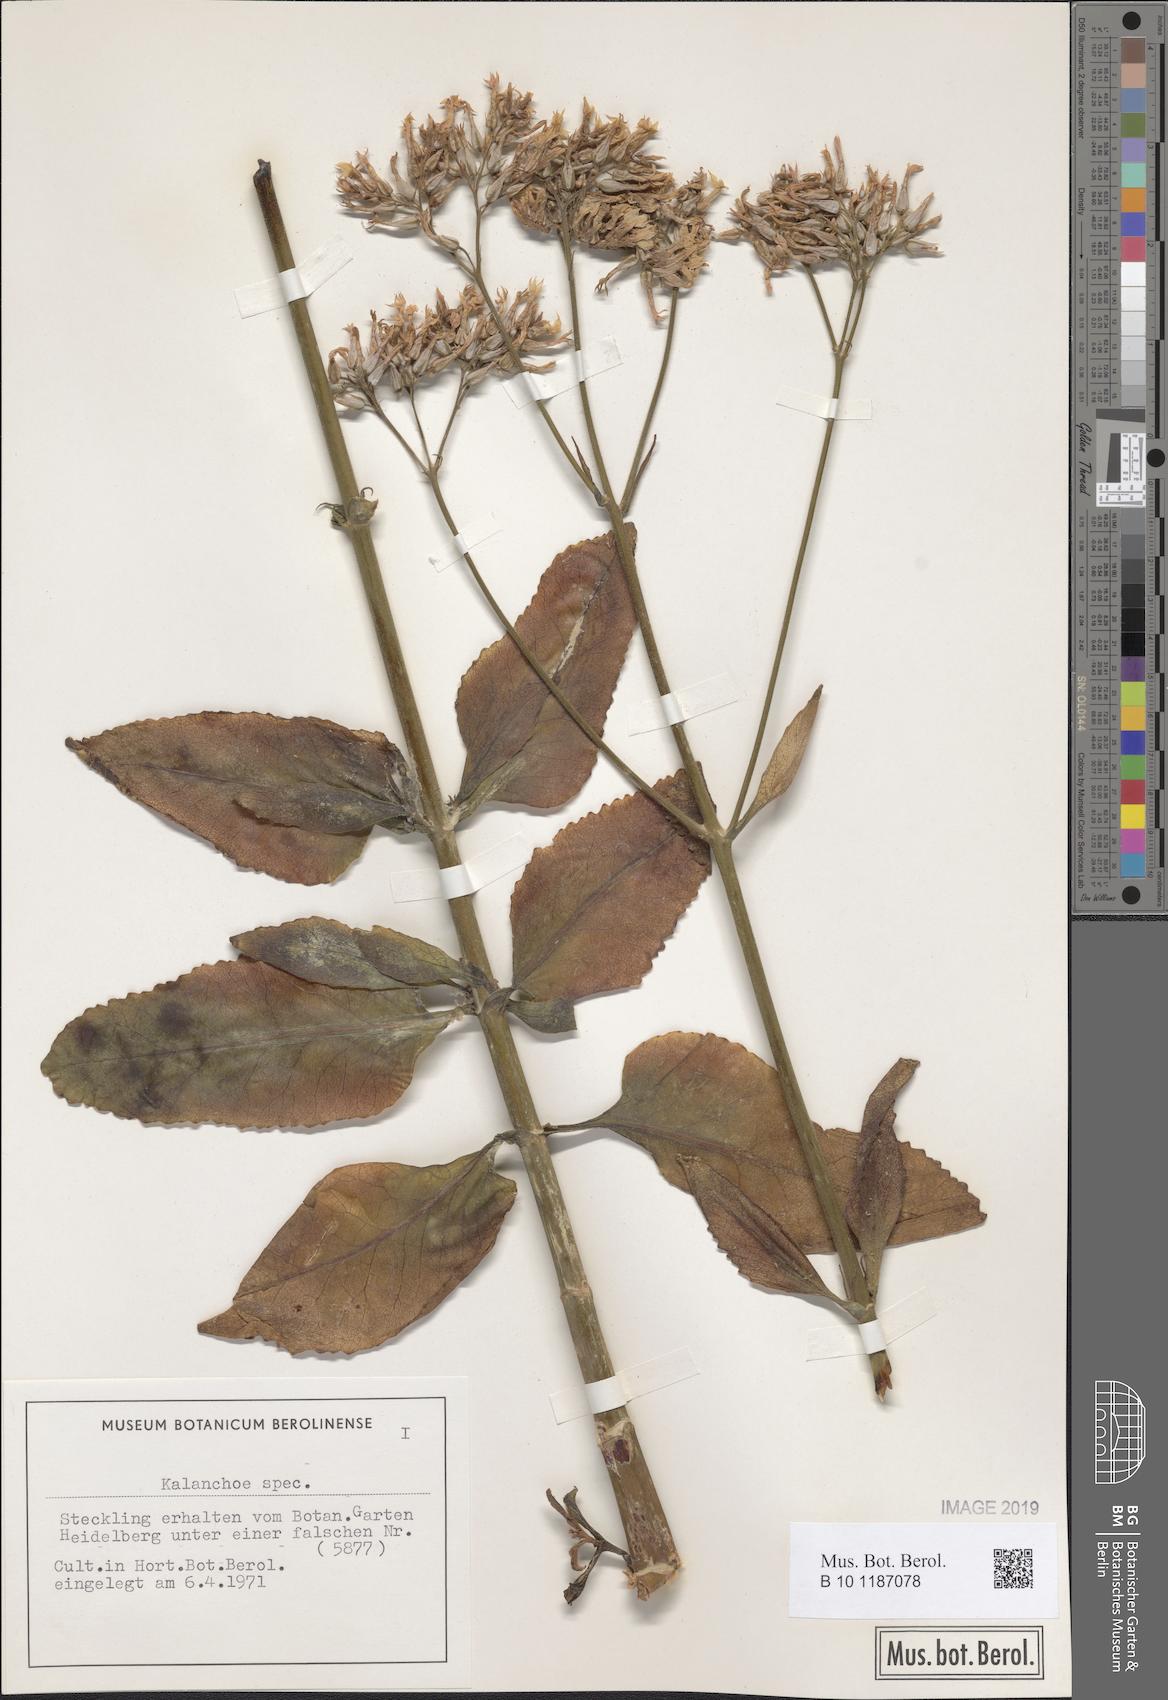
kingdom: Plantae
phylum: Tracheophyta
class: Magnoliopsida
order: Saxifragales
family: Crassulaceae
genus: Kalanchoe
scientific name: Kalanchoe
